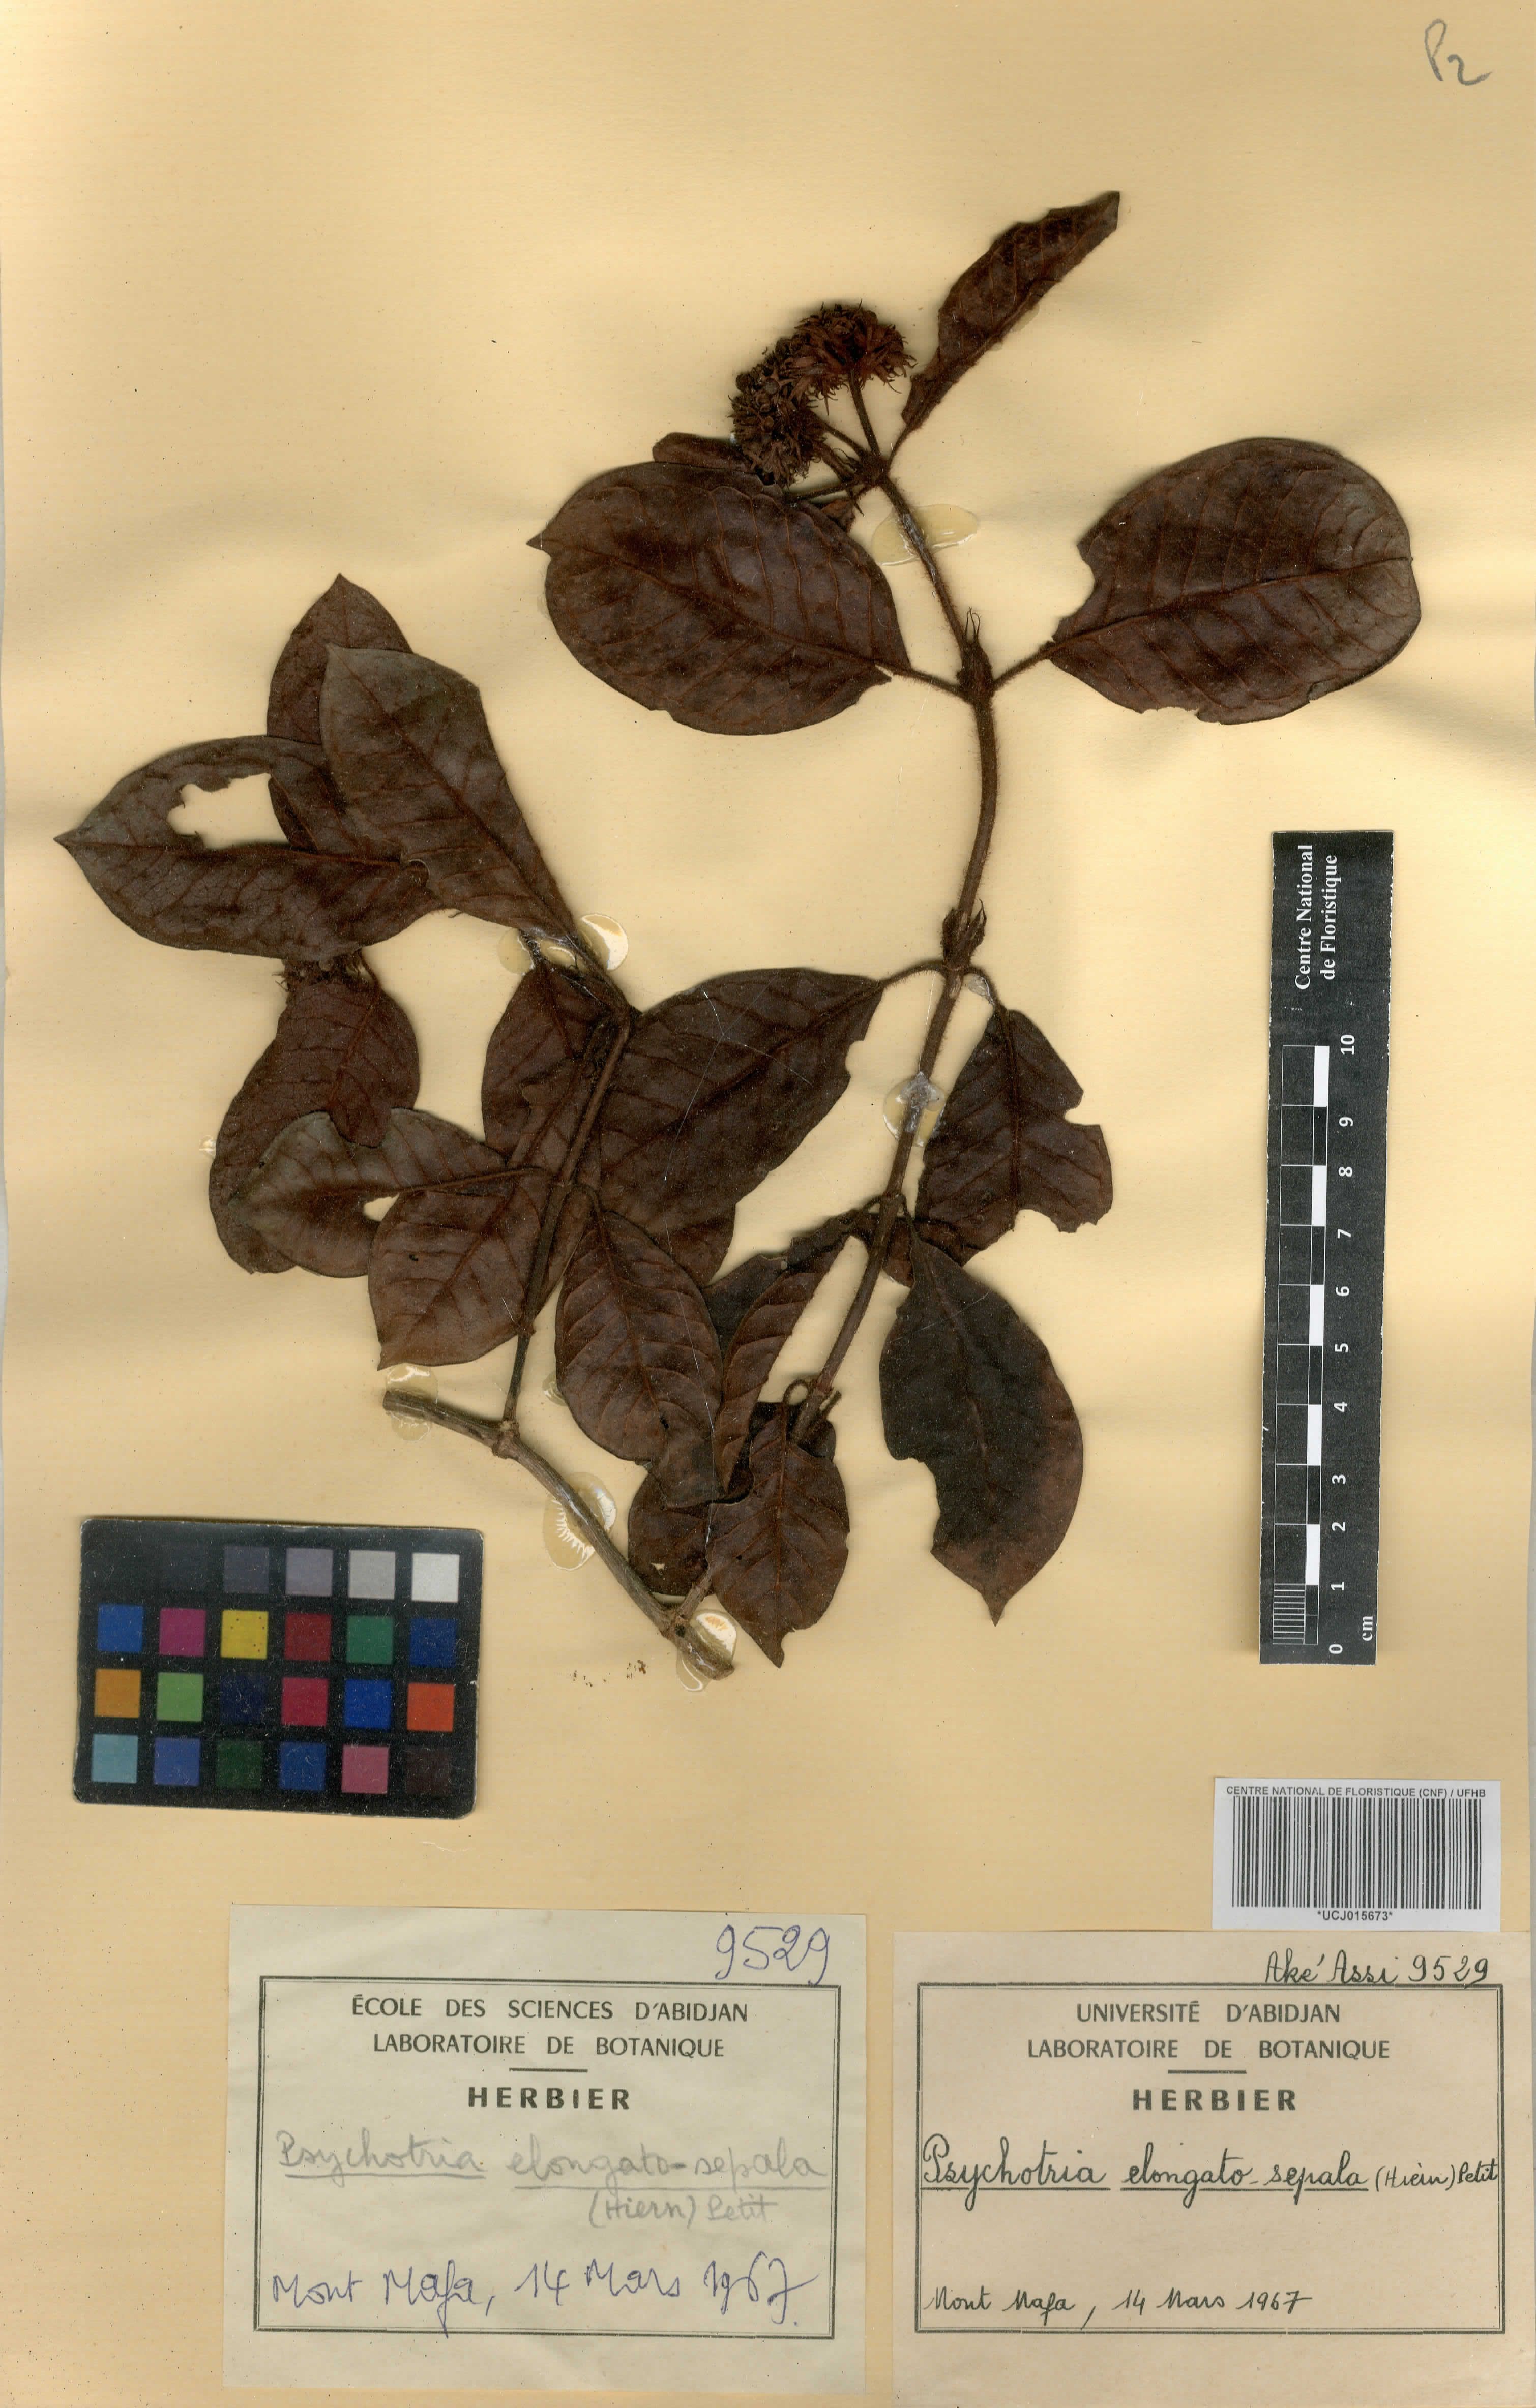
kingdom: Plantae
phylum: Tracheophyta
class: Magnoliopsida
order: Gentianales
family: Rubiaceae
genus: Psychotria
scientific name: Psychotria elongatosepala
